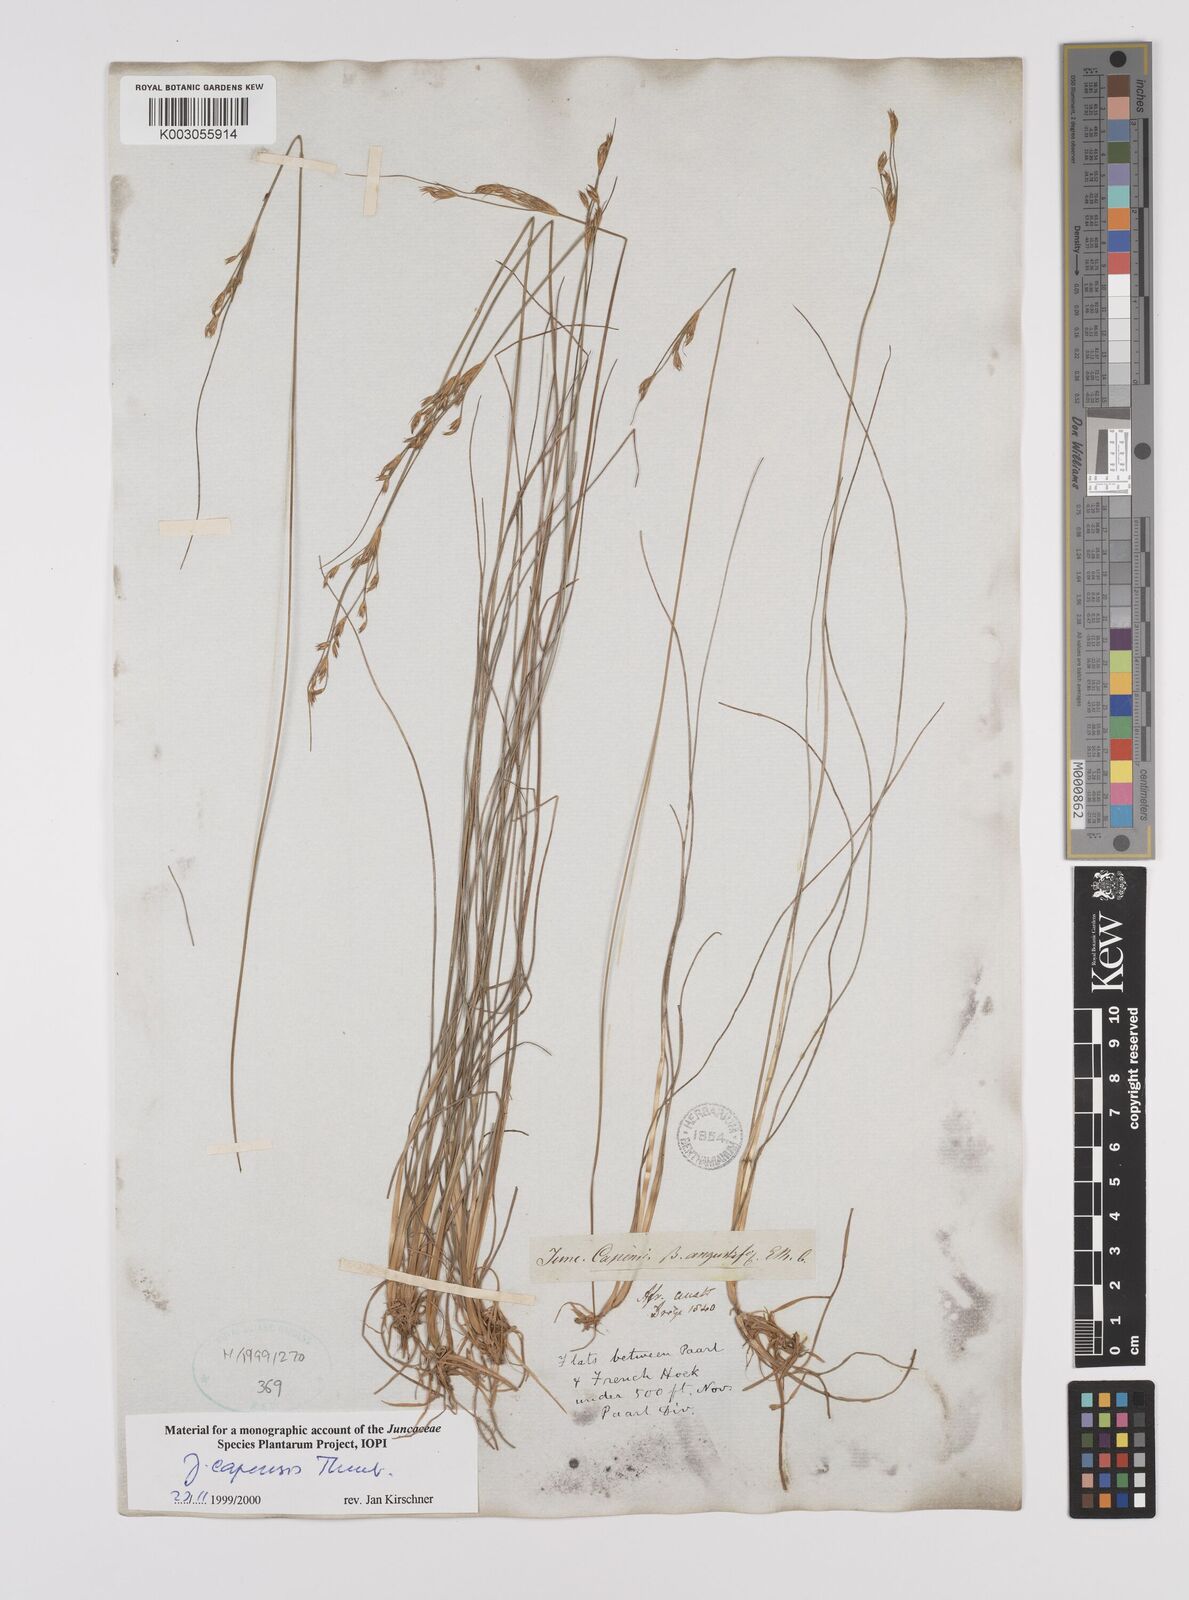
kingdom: Plantae
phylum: Tracheophyta
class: Liliopsida
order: Poales
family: Juncaceae
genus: Juncus
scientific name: Juncus capensis
